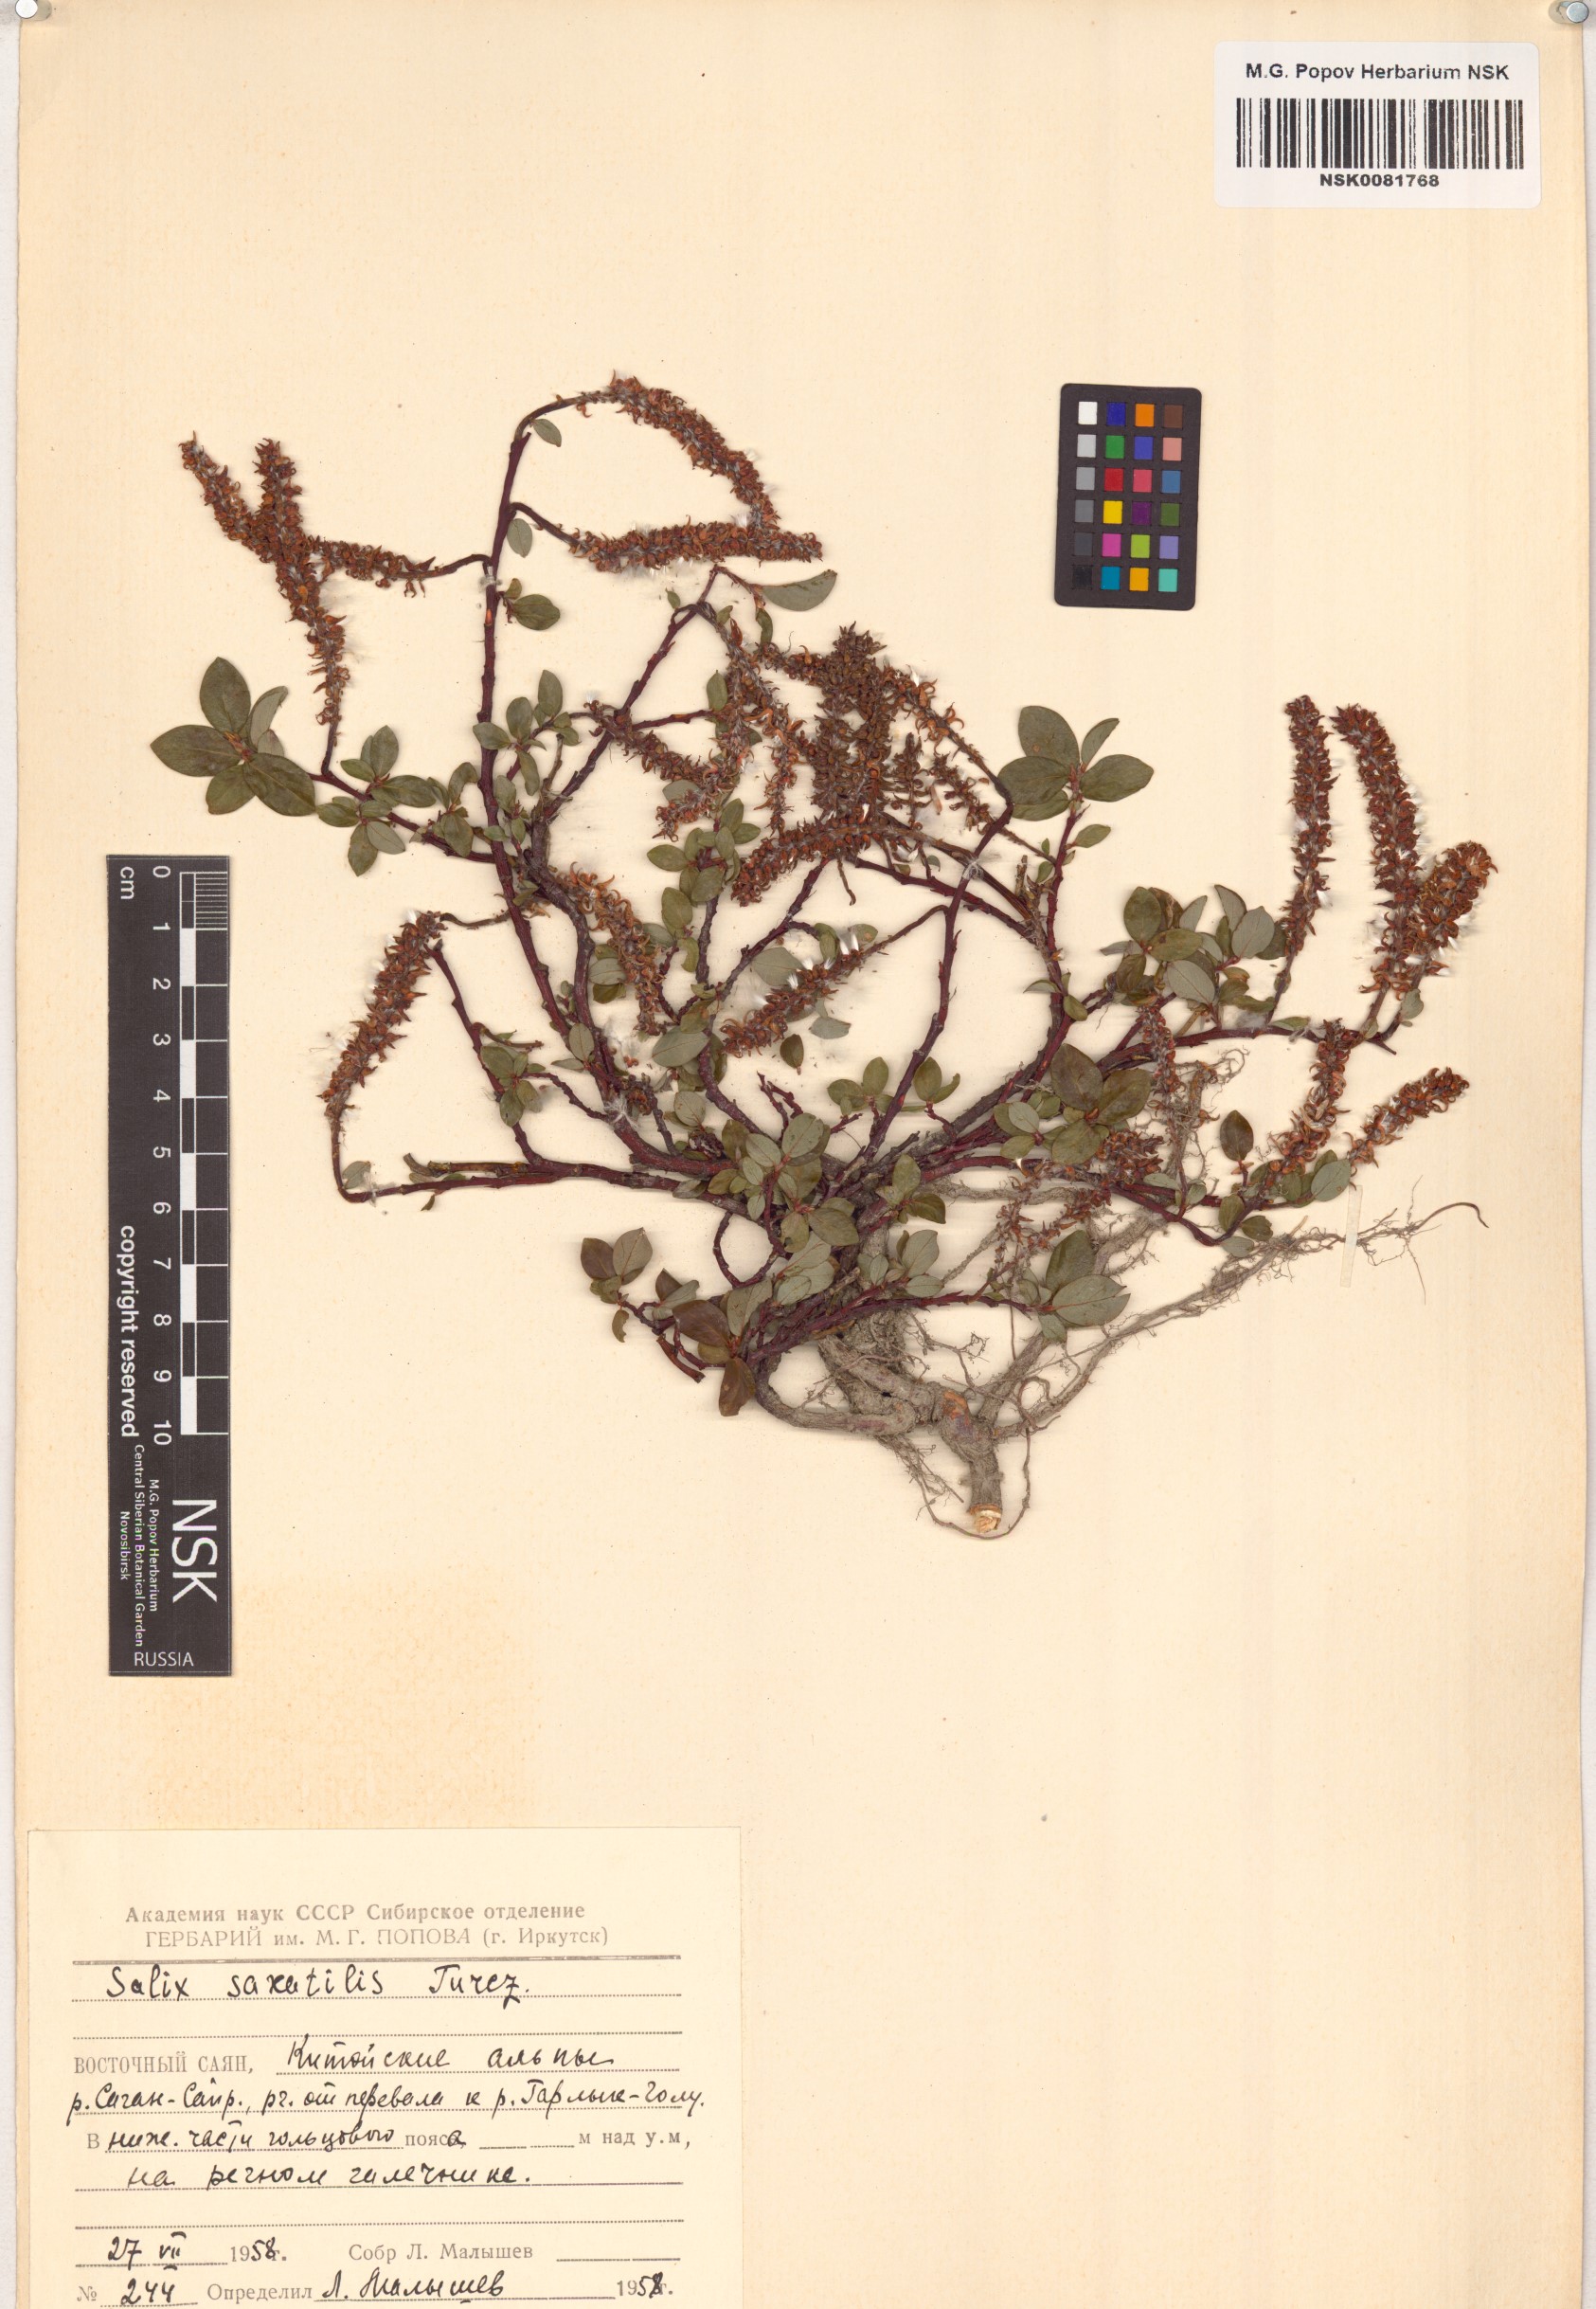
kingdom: Plantae
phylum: Tracheophyta
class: Magnoliopsida
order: Malpighiales
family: Salicaceae
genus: Salix
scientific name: Salix saxatilis
